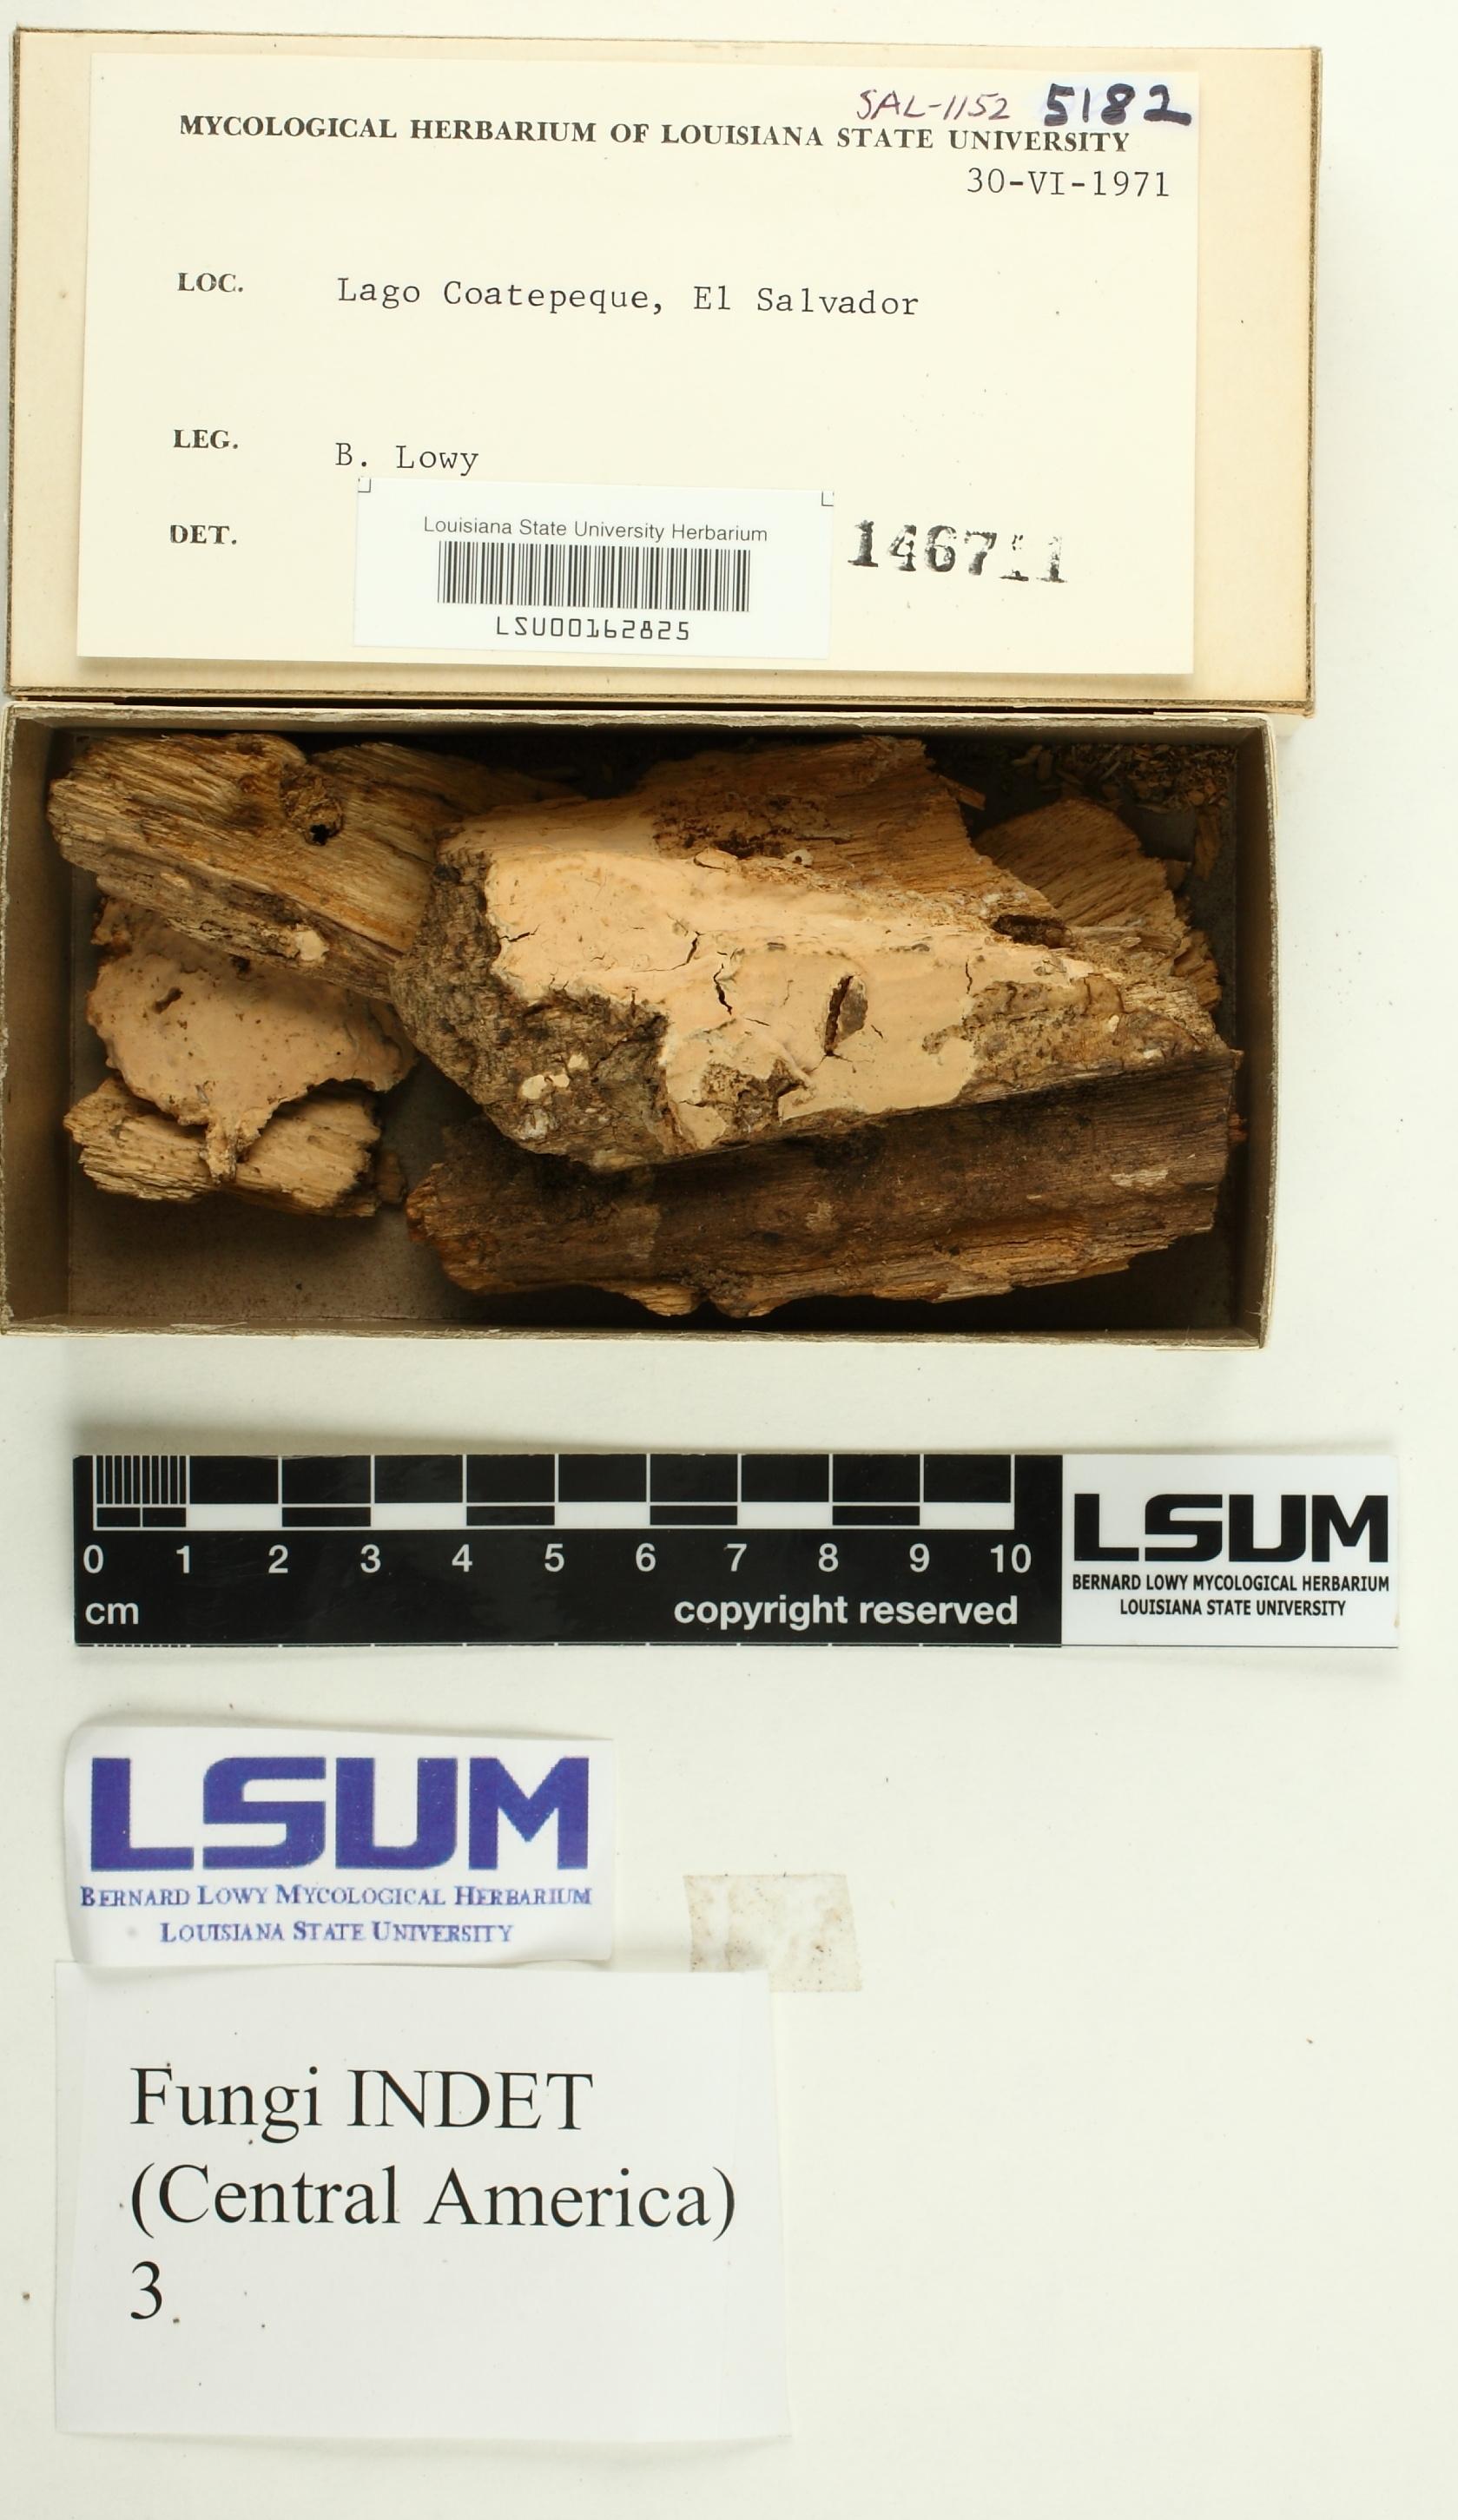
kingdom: Fungi
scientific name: Fungi
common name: Fungi
